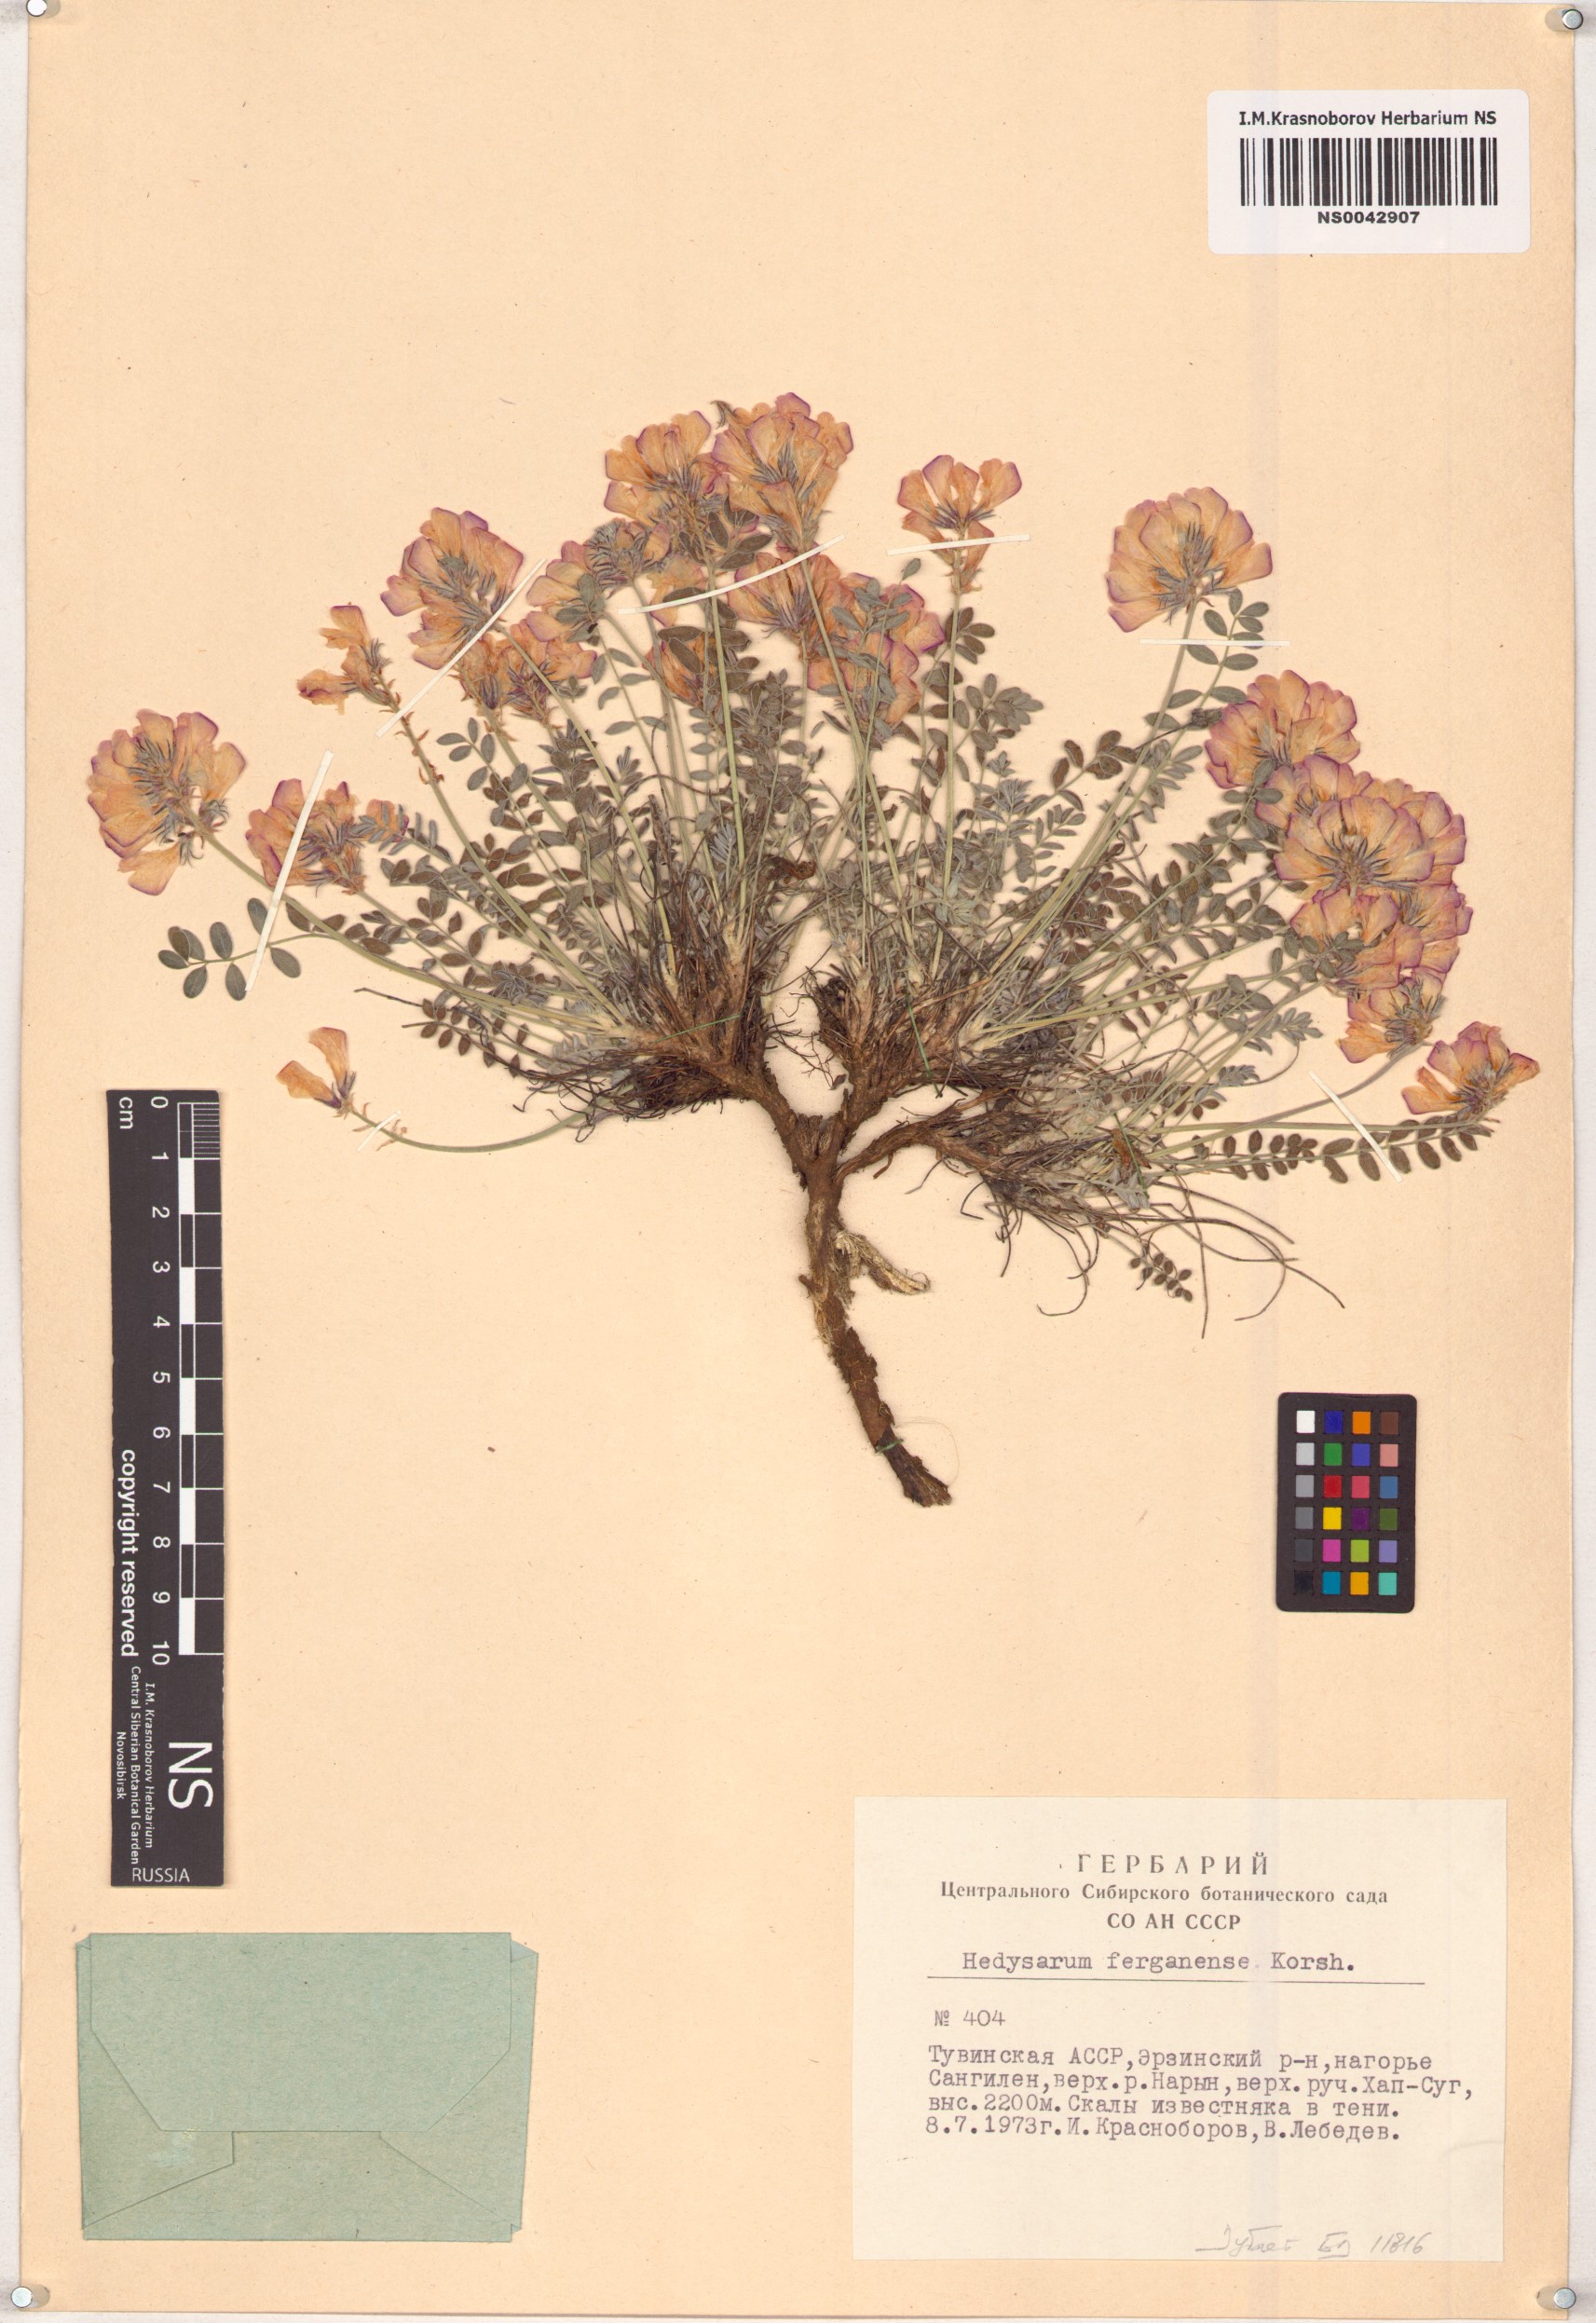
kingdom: Plantae
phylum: Tracheophyta
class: Magnoliopsida
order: Fabales
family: Fabaceae
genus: Hedysarum
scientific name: Hedysarum ferganense
